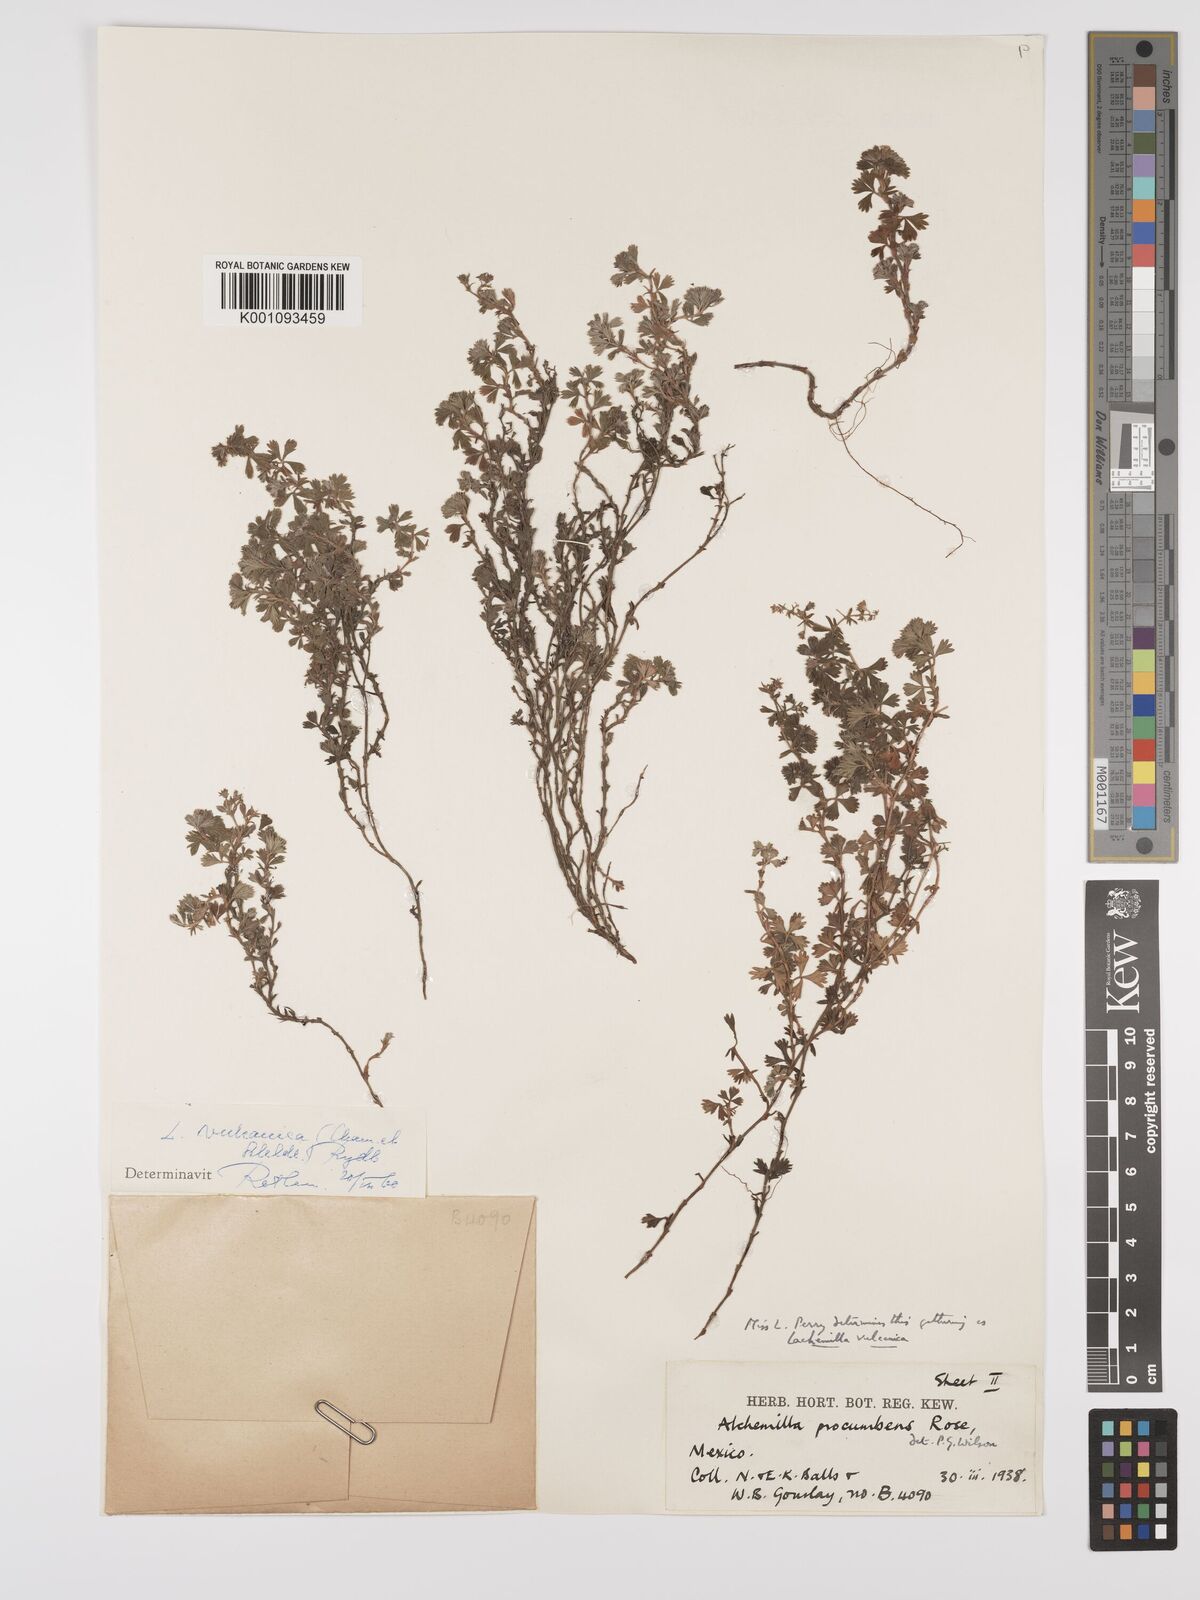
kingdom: Plantae
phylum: Tracheophyta
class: Magnoliopsida
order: Rosales
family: Rosaceae
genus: Alchemilla
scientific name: Alchemilla
